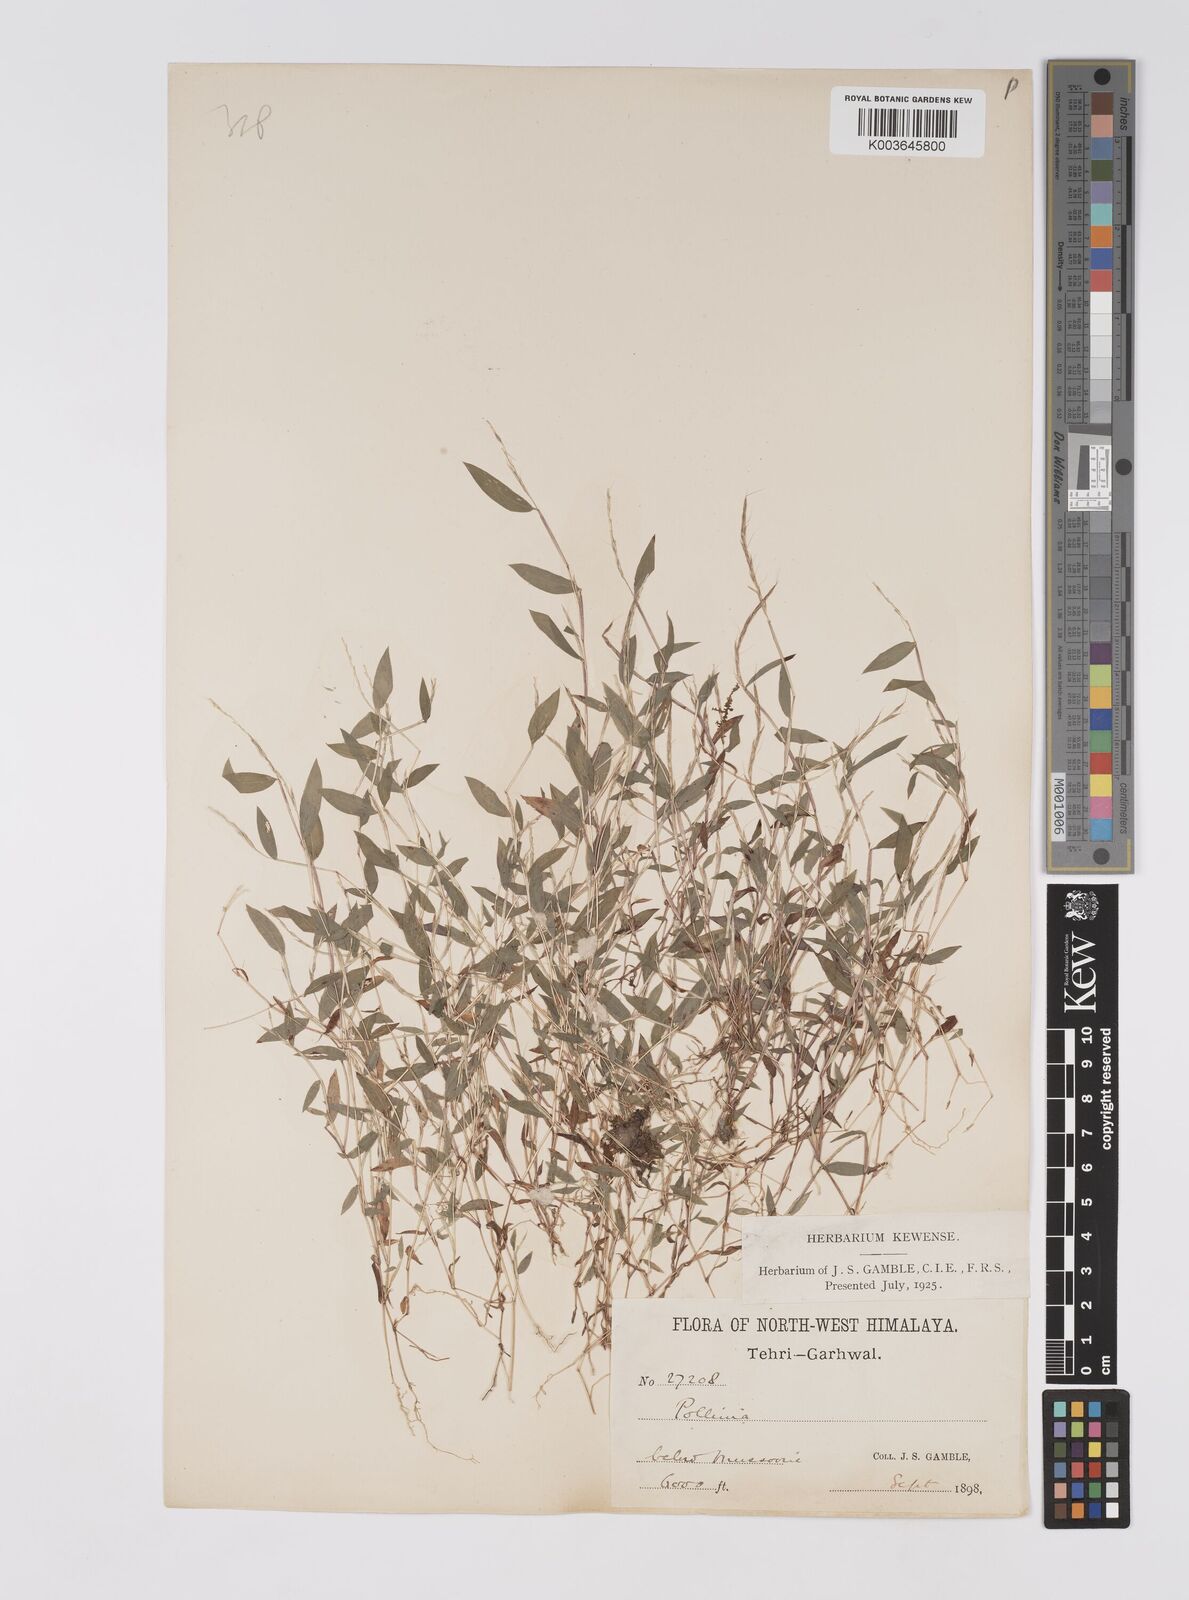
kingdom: Plantae
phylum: Tracheophyta
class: Liliopsida
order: Poales
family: Poaceae
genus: Microstegium
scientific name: Microstegium falconeri
